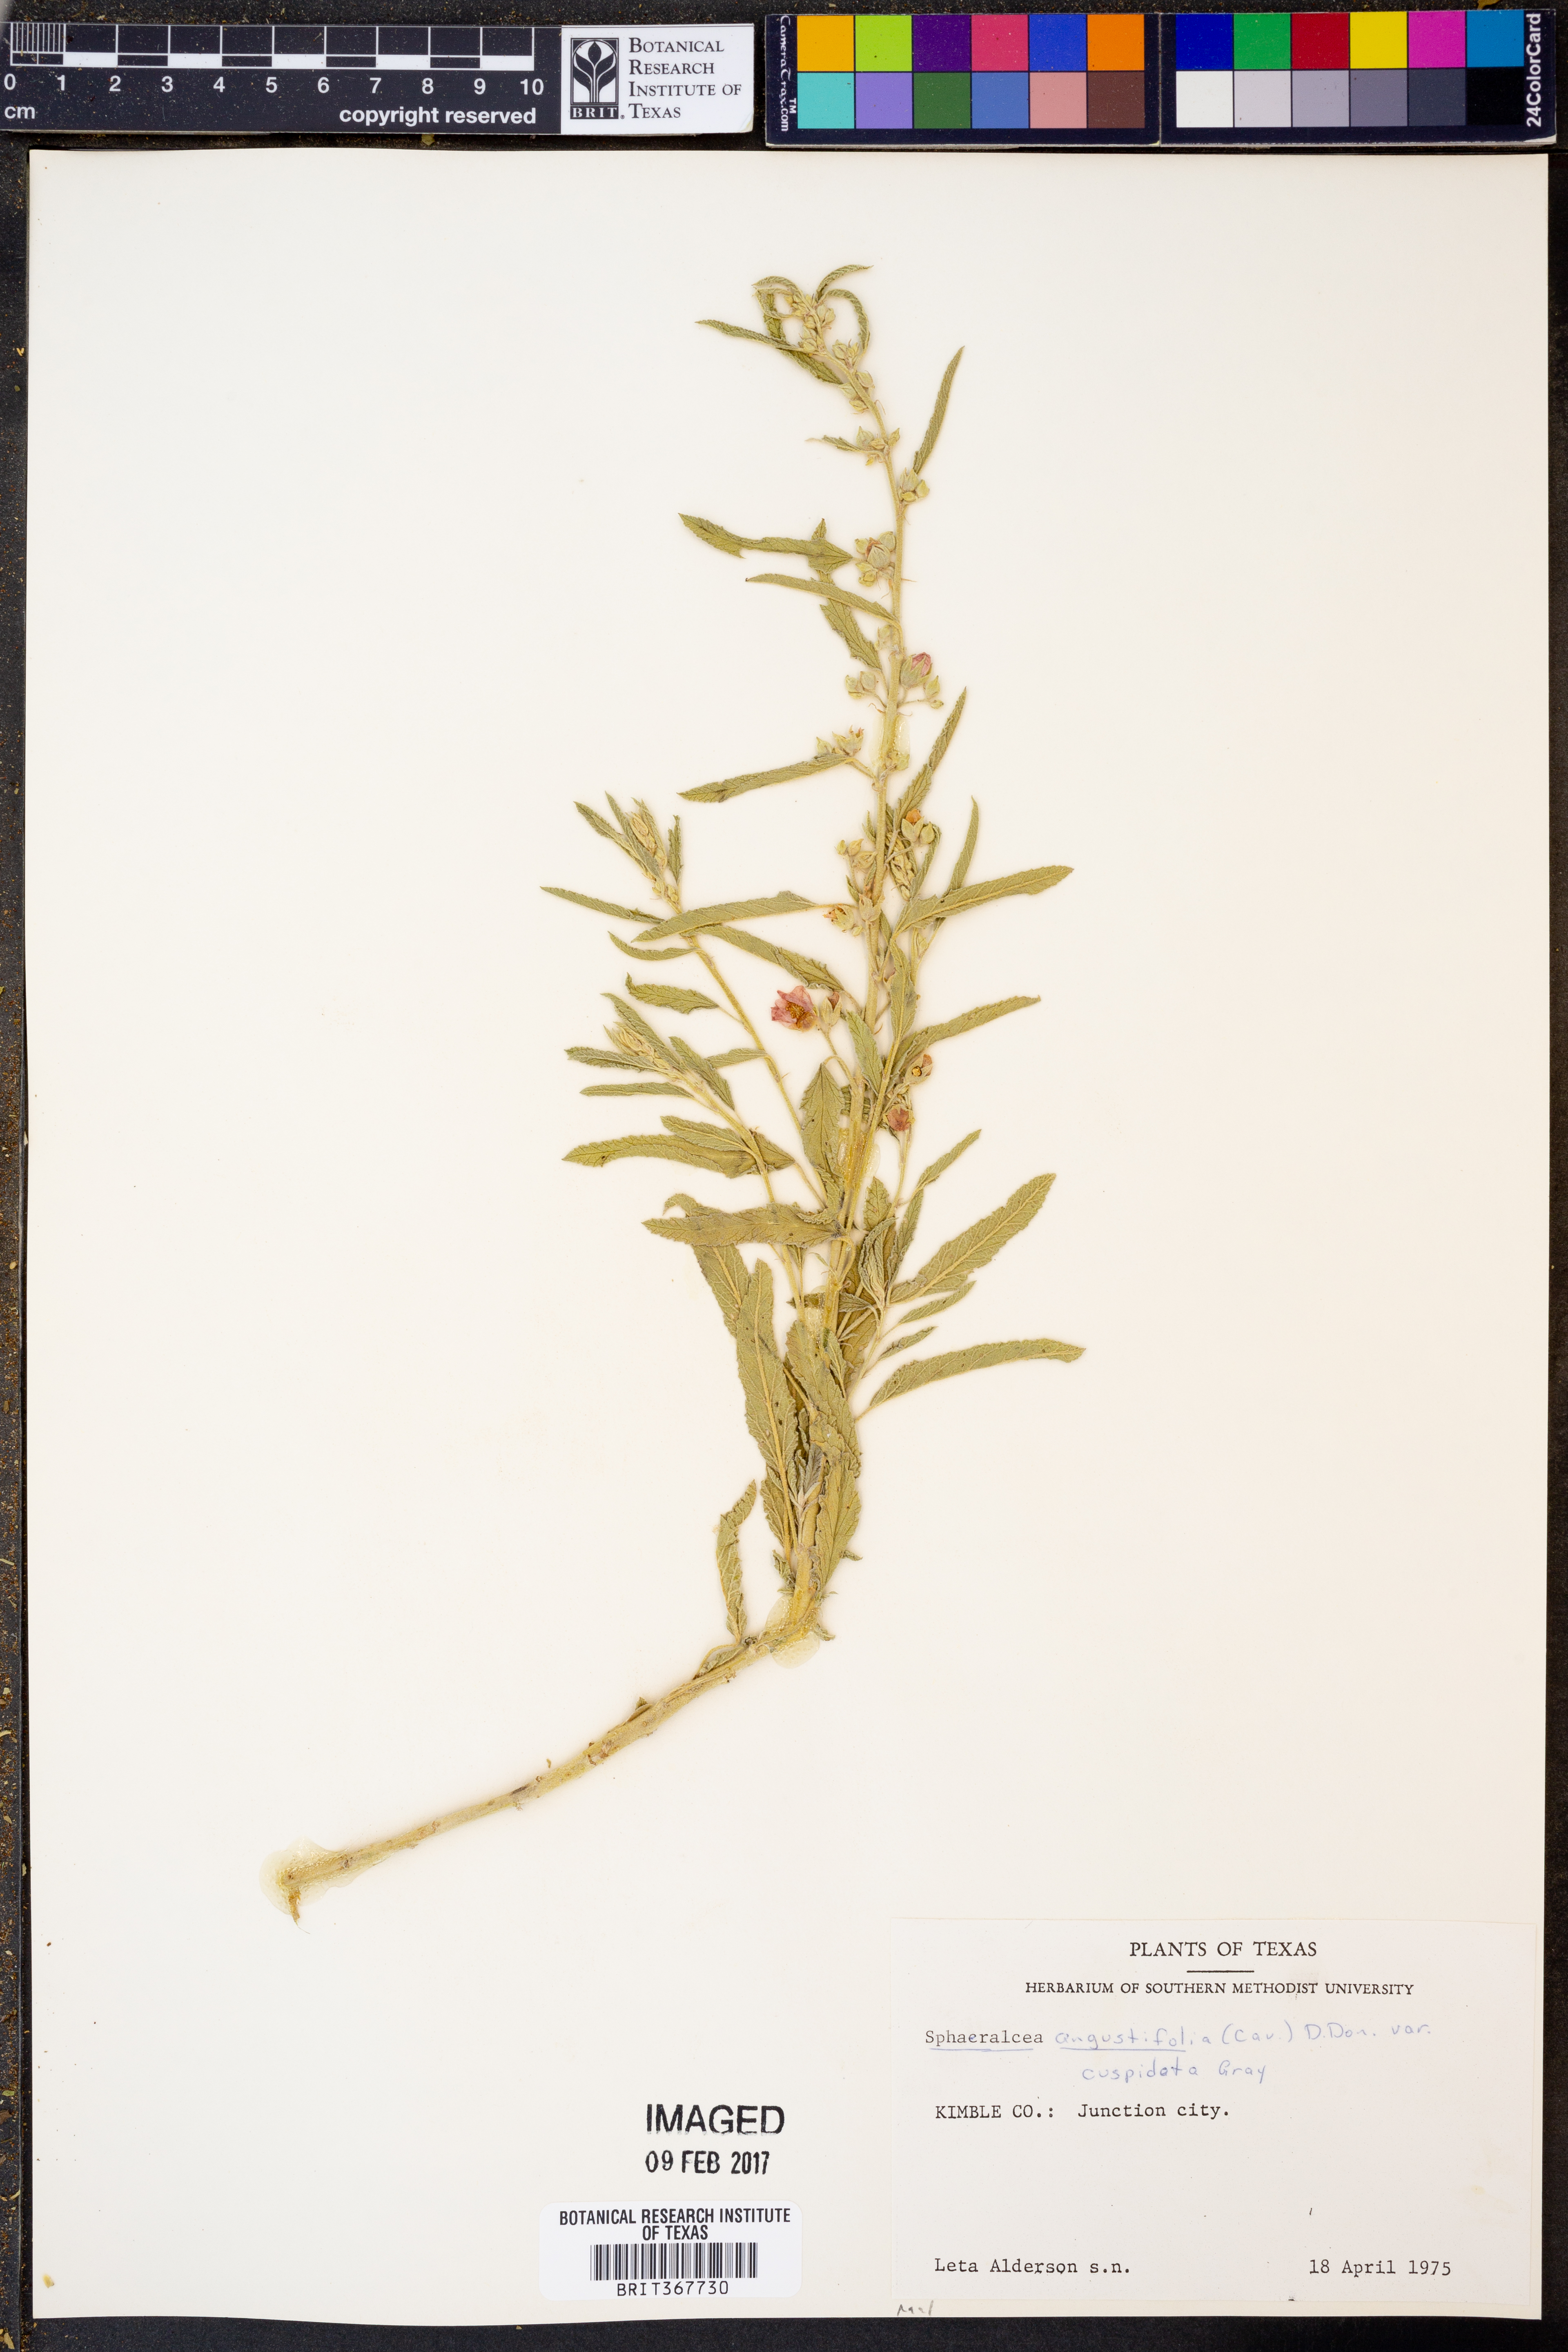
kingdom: Plantae
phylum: Tracheophyta
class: Magnoliopsida
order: Malvales
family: Malvaceae
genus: Sphaeralcea
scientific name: Sphaeralcea angustifolia
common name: Copper globe-mallow
